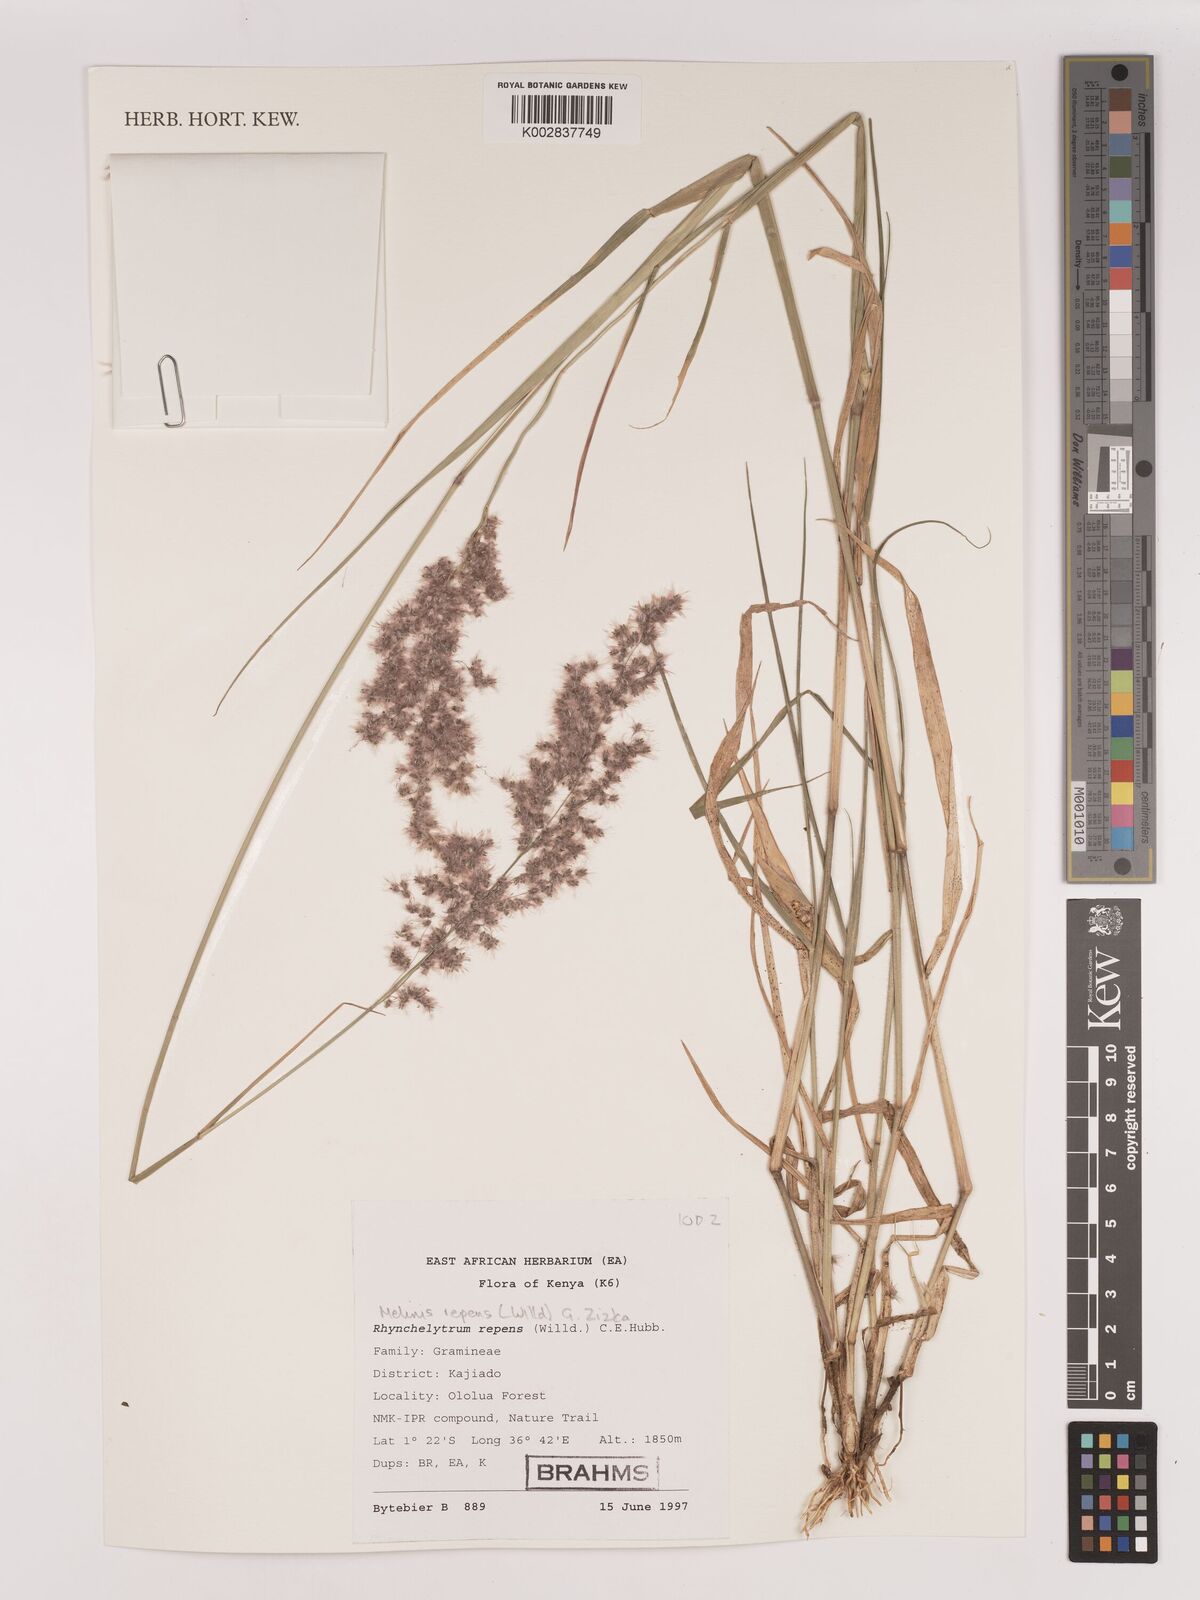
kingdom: Plantae
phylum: Tracheophyta
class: Liliopsida
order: Poales
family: Poaceae
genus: Melinis
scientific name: Melinis repens
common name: Rose natal grass
